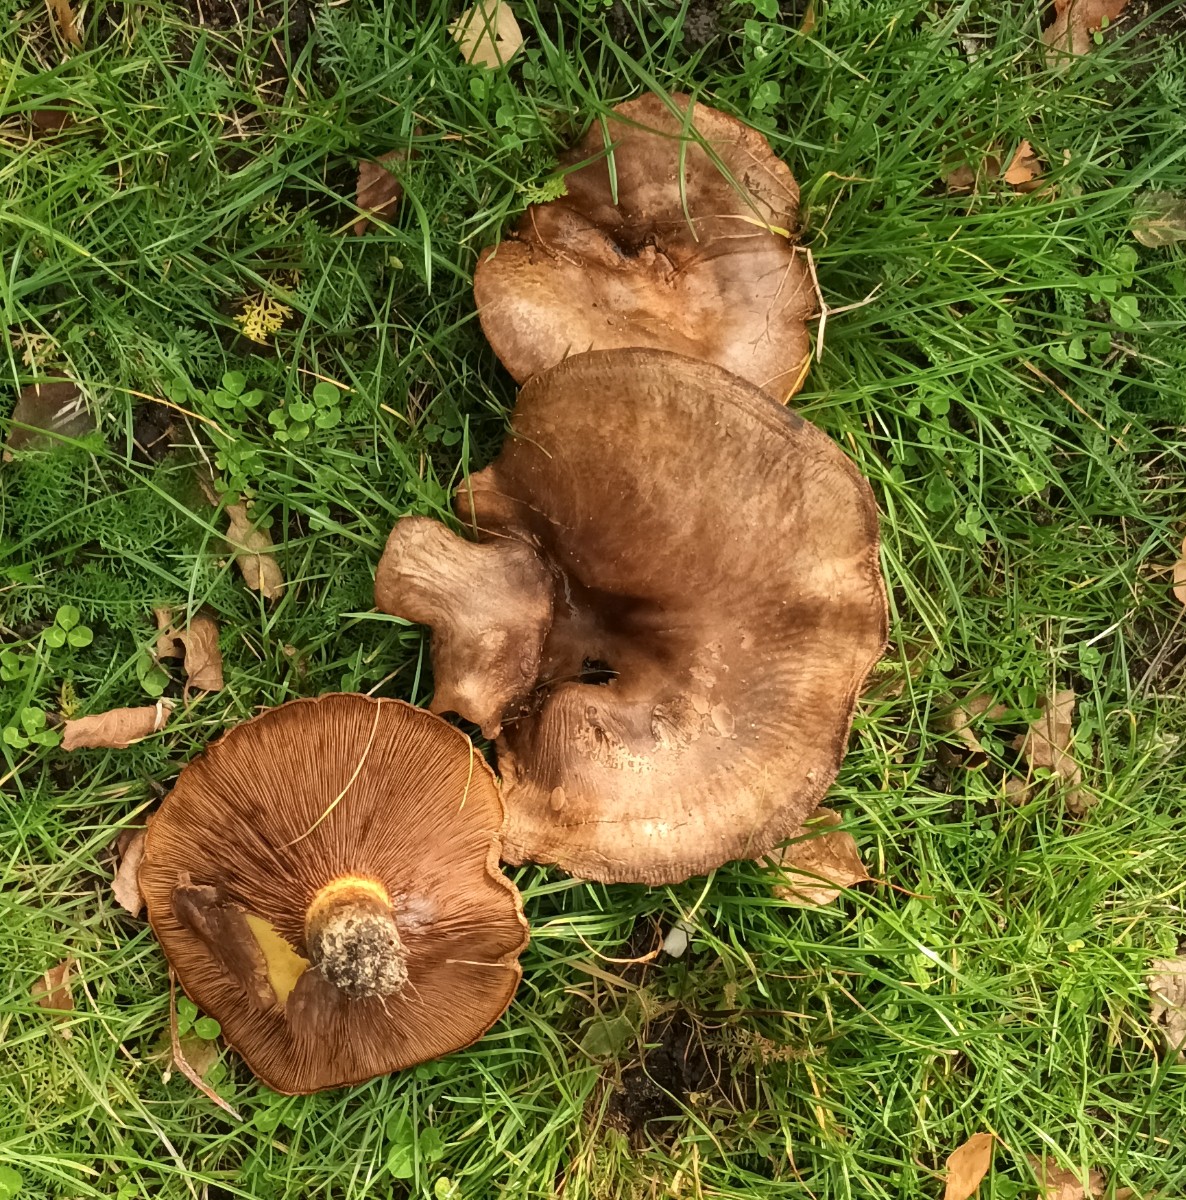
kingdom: Fungi
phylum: Basidiomycota
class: Agaricomycetes
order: Boletales
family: Paxillaceae
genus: Paxillus
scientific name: Paxillus involutus
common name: almindelig netbladhat
